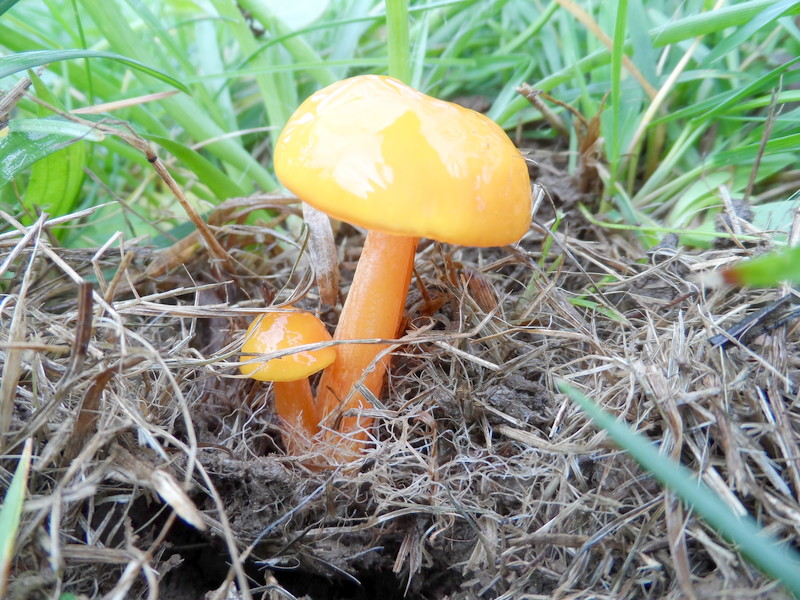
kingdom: Fungi
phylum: Basidiomycota
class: Agaricomycetes
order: Agaricales
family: Hygrophoraceae
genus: Hygrocybe
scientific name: Hygrocybe chlorophana
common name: Golden waxcap
